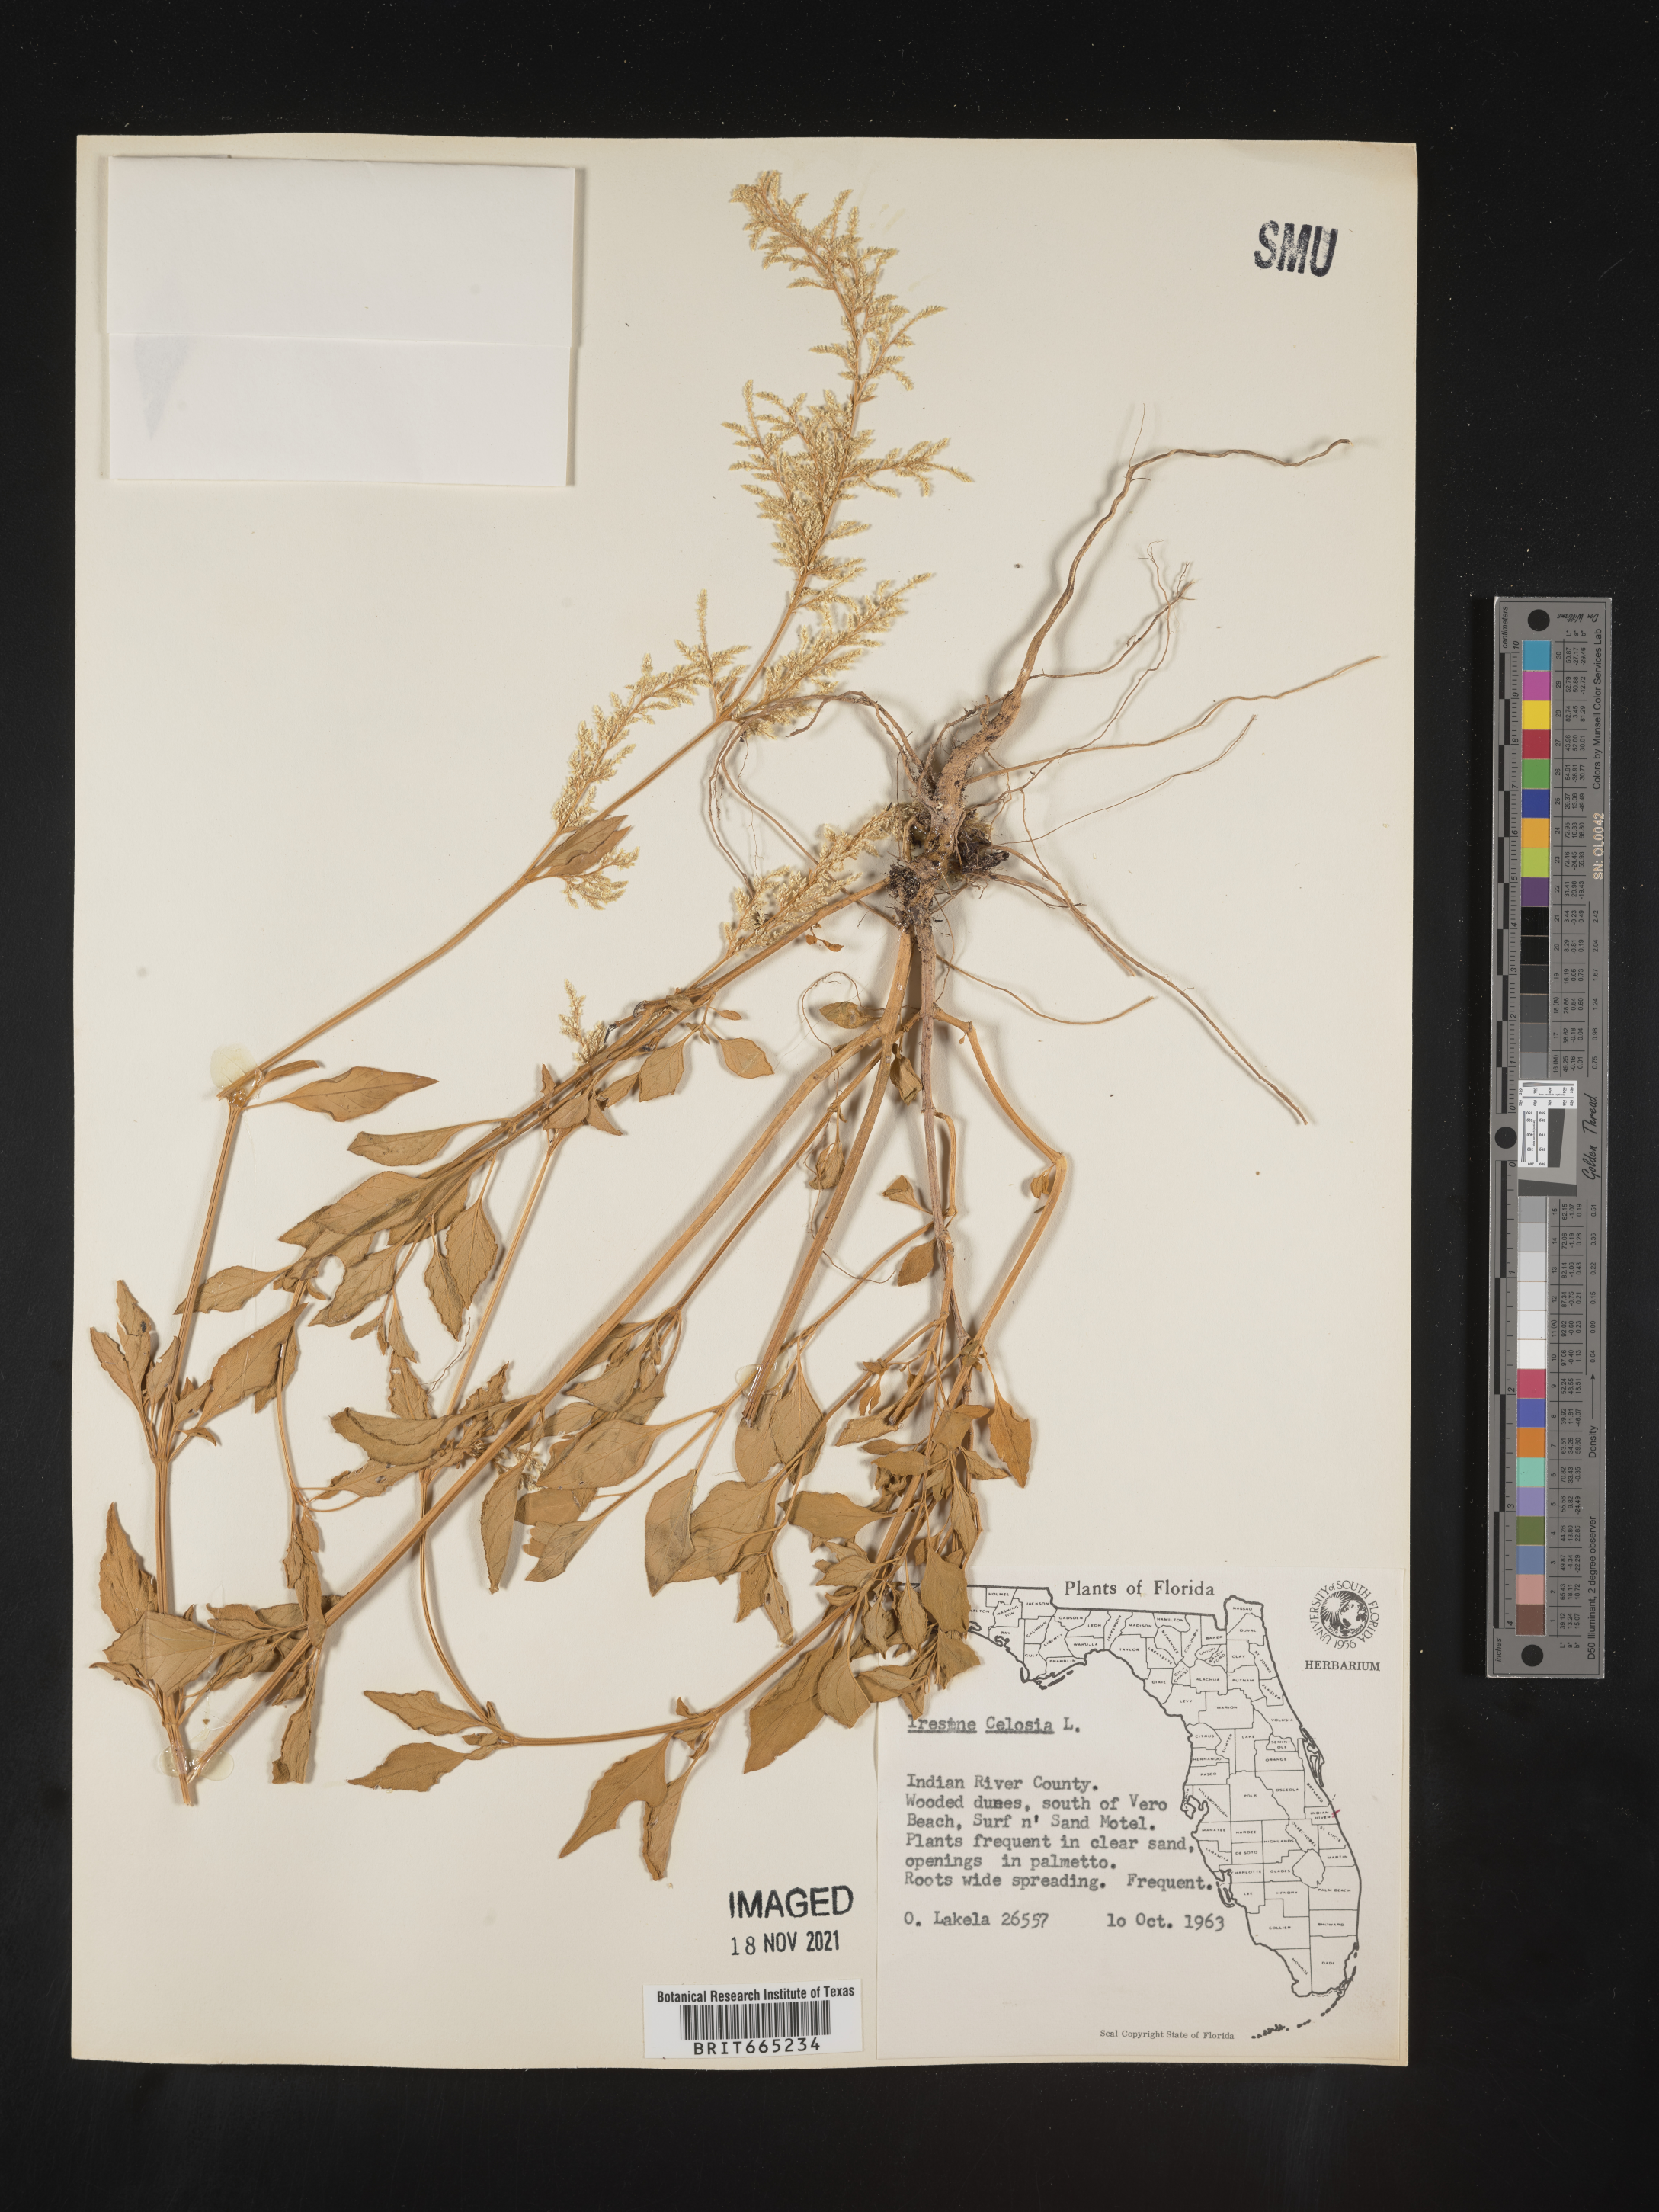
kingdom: Plantae
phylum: Tracheophyta
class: Magnoliopsida
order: Caryophyllales
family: Amaranthaceae
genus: Iresine
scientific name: Iresine
